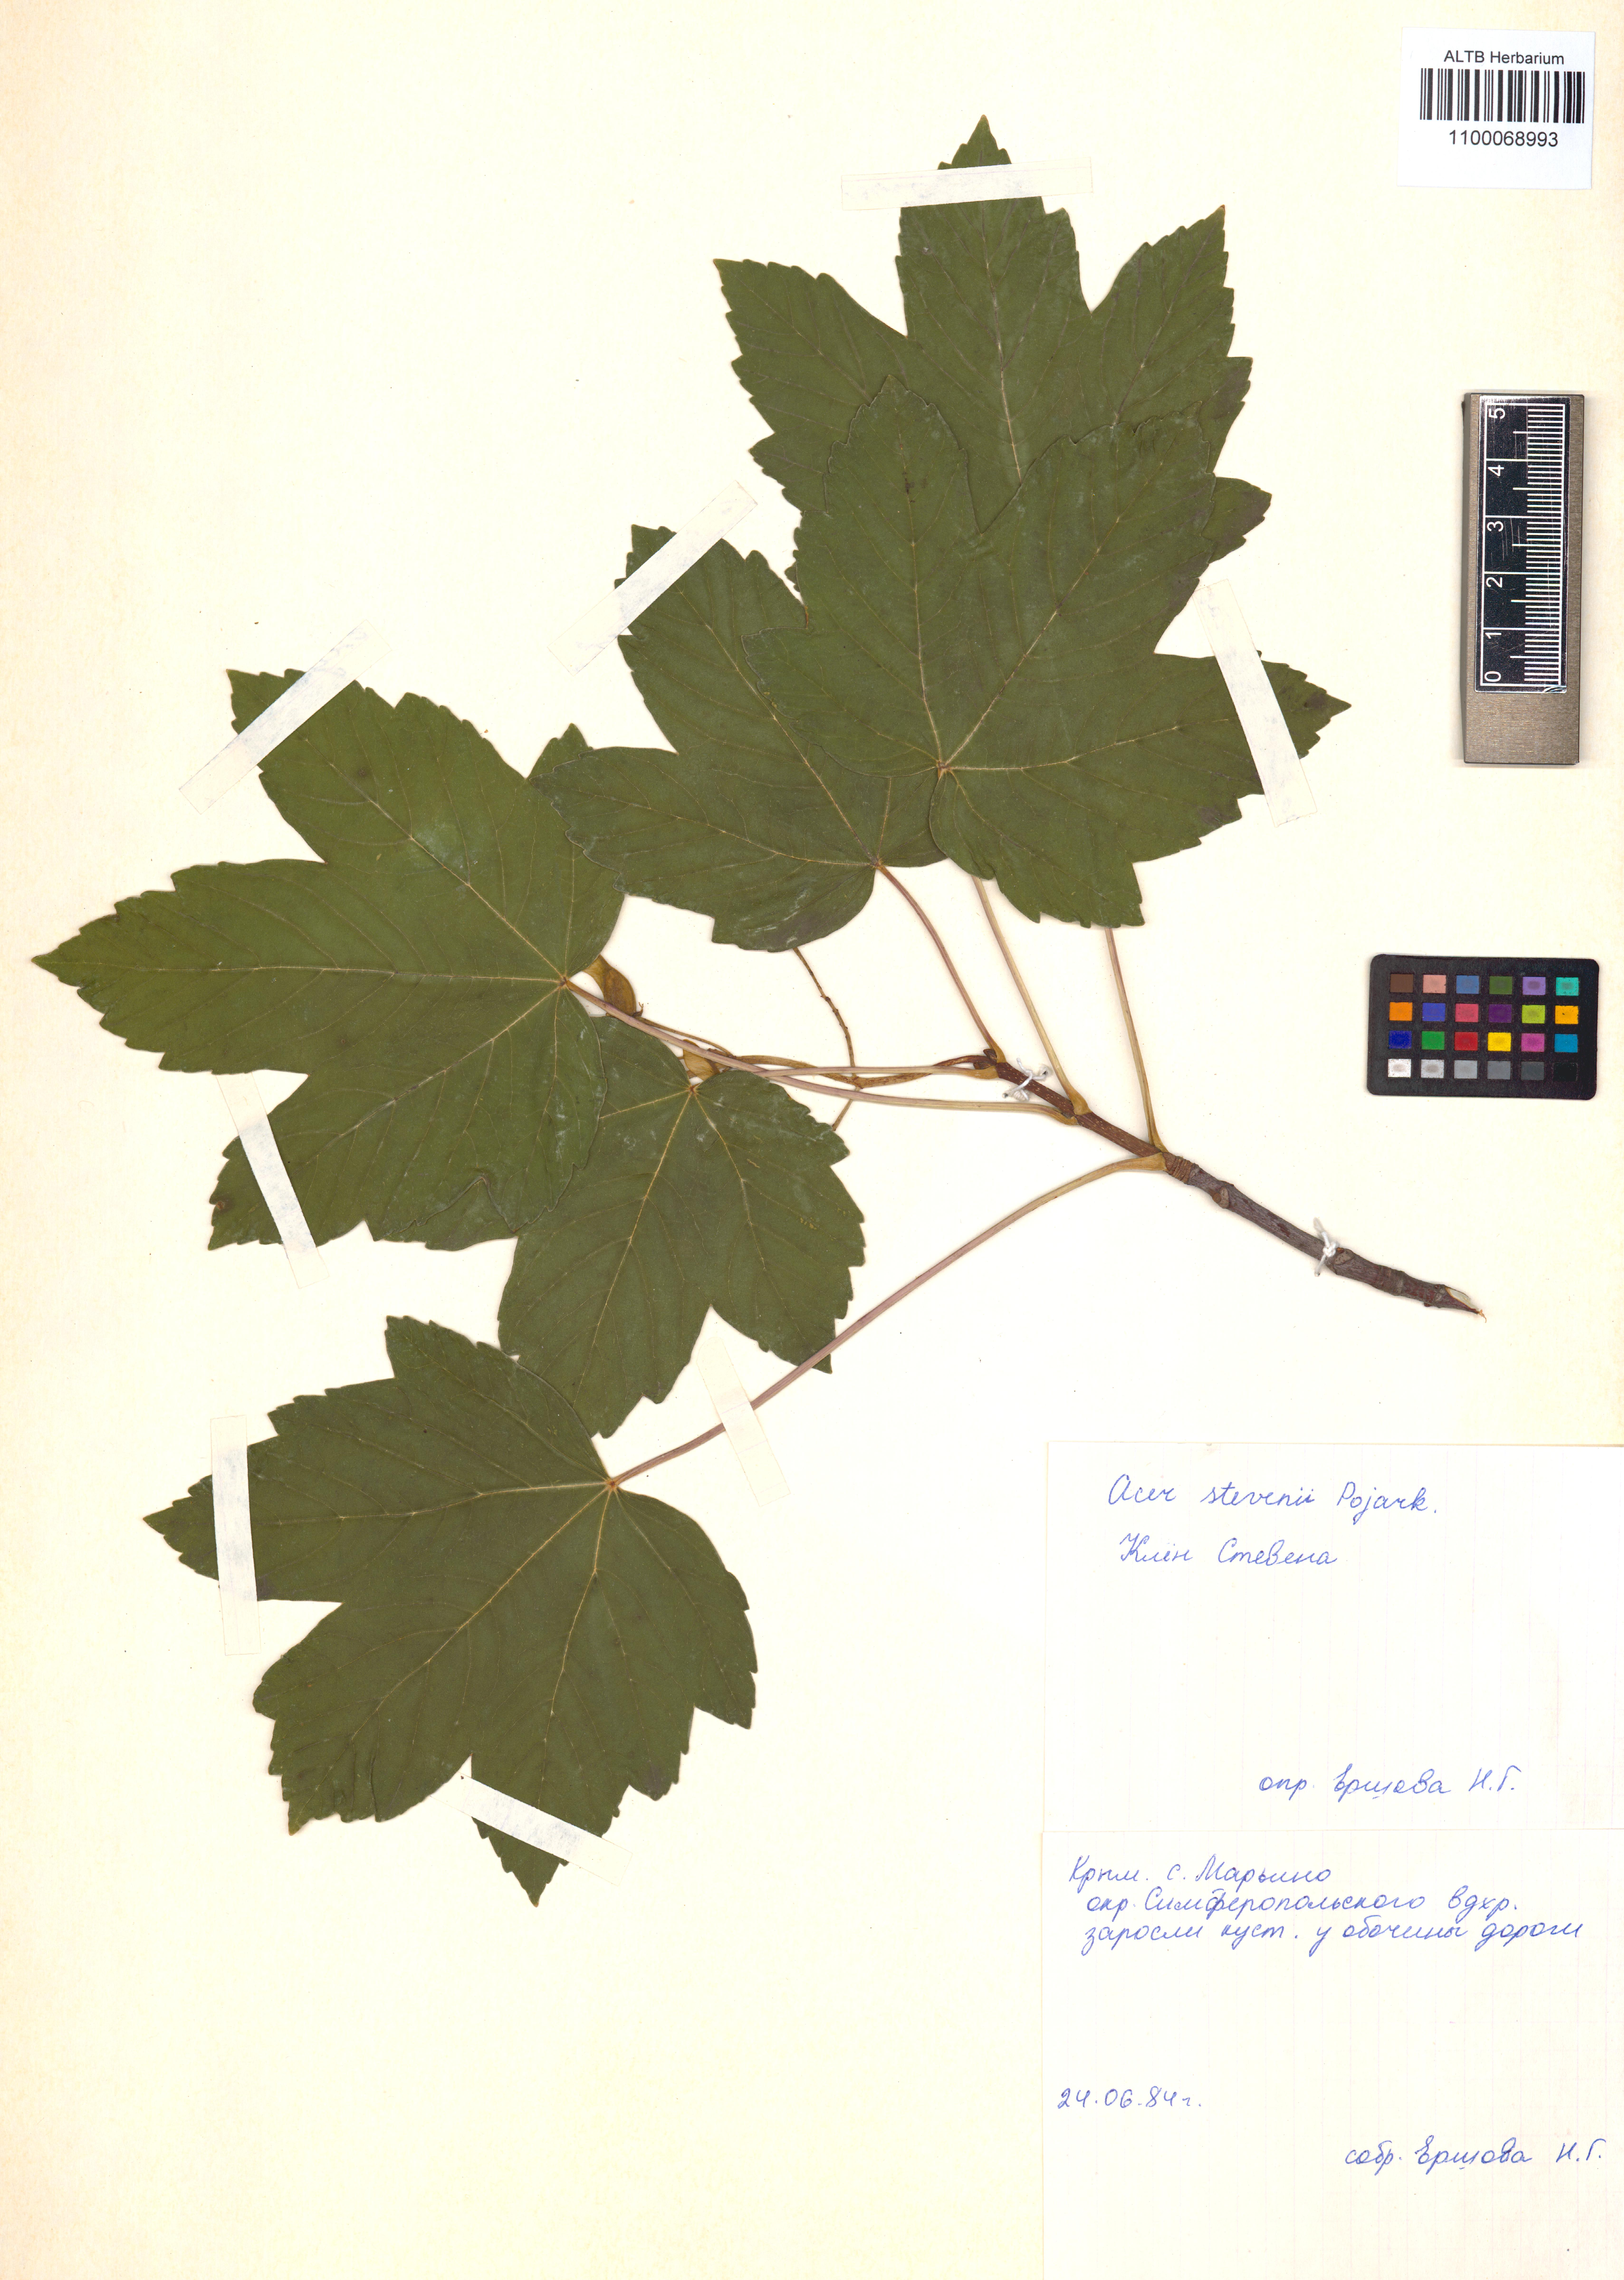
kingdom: Plantae
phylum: Tracheophyta
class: Magnoliopsida
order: Sapindales
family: Sapindaceae
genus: Acer
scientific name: Acer hyrcanum
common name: Balkan maple
